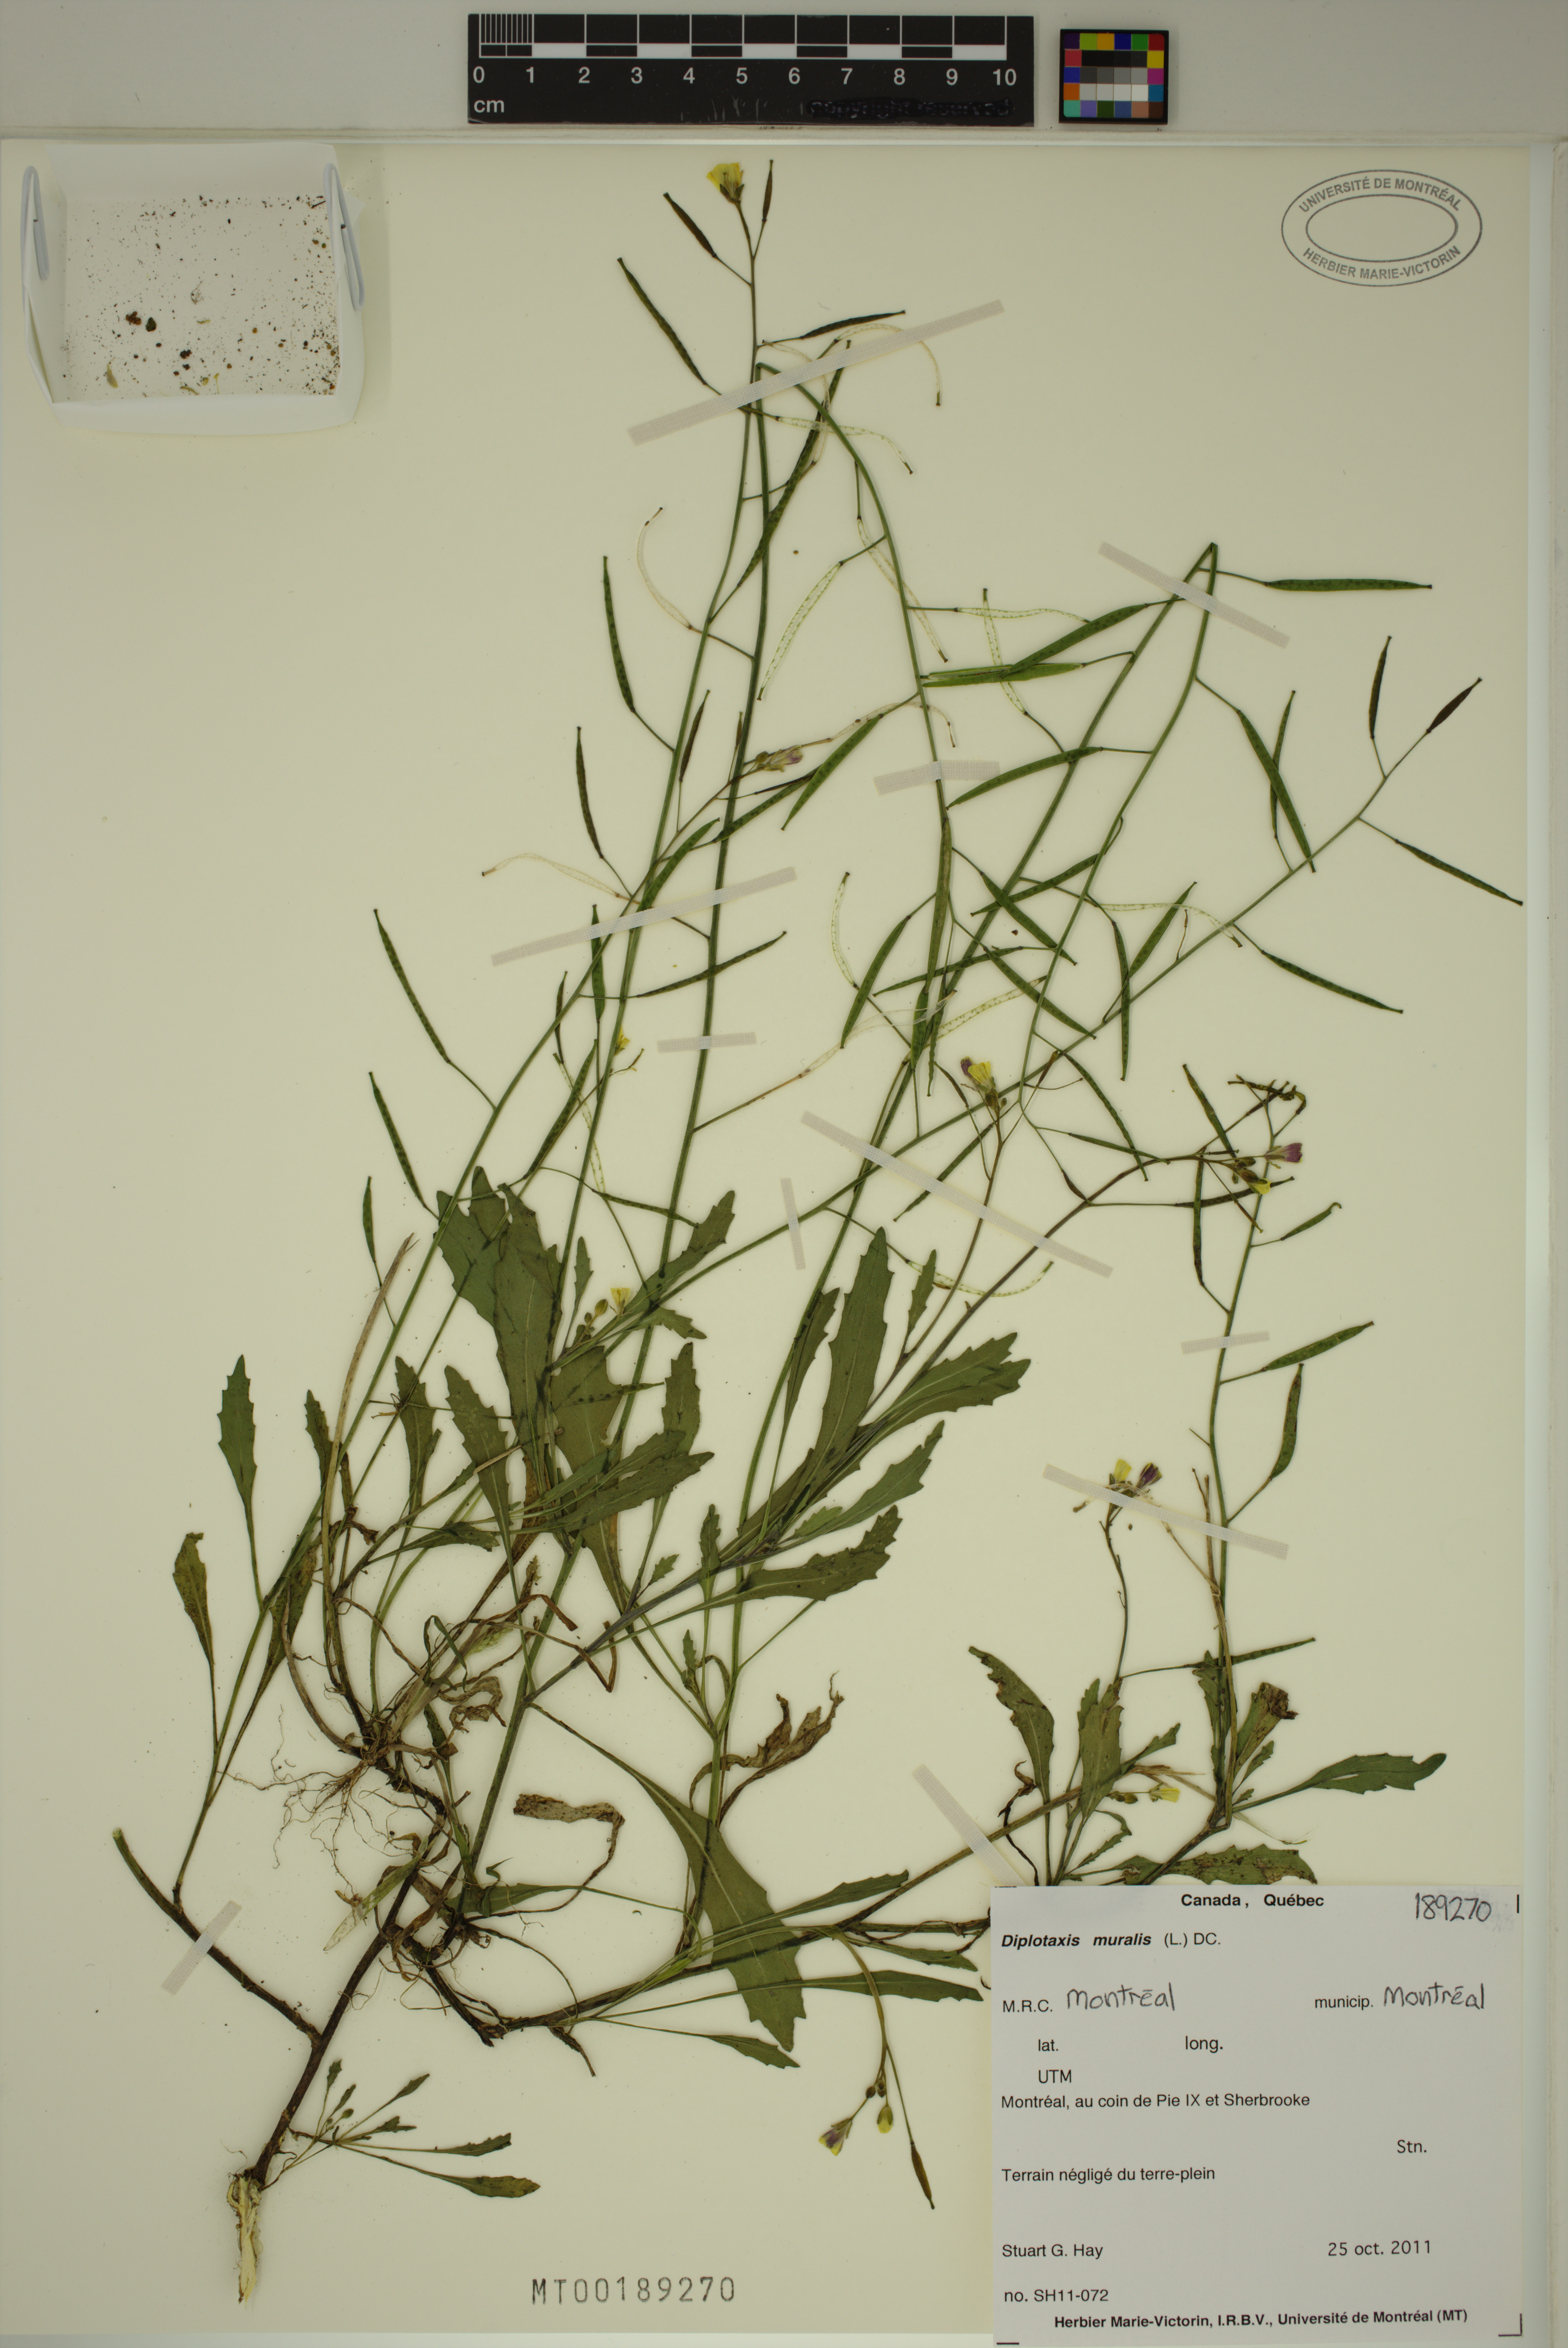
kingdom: Plantae
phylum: Tracheophyta
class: Magnoliopsida
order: Brassicales
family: Brassicaceae
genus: Diplotaxis
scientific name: Diplotaxis muralis
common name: Annual wall-rocket
